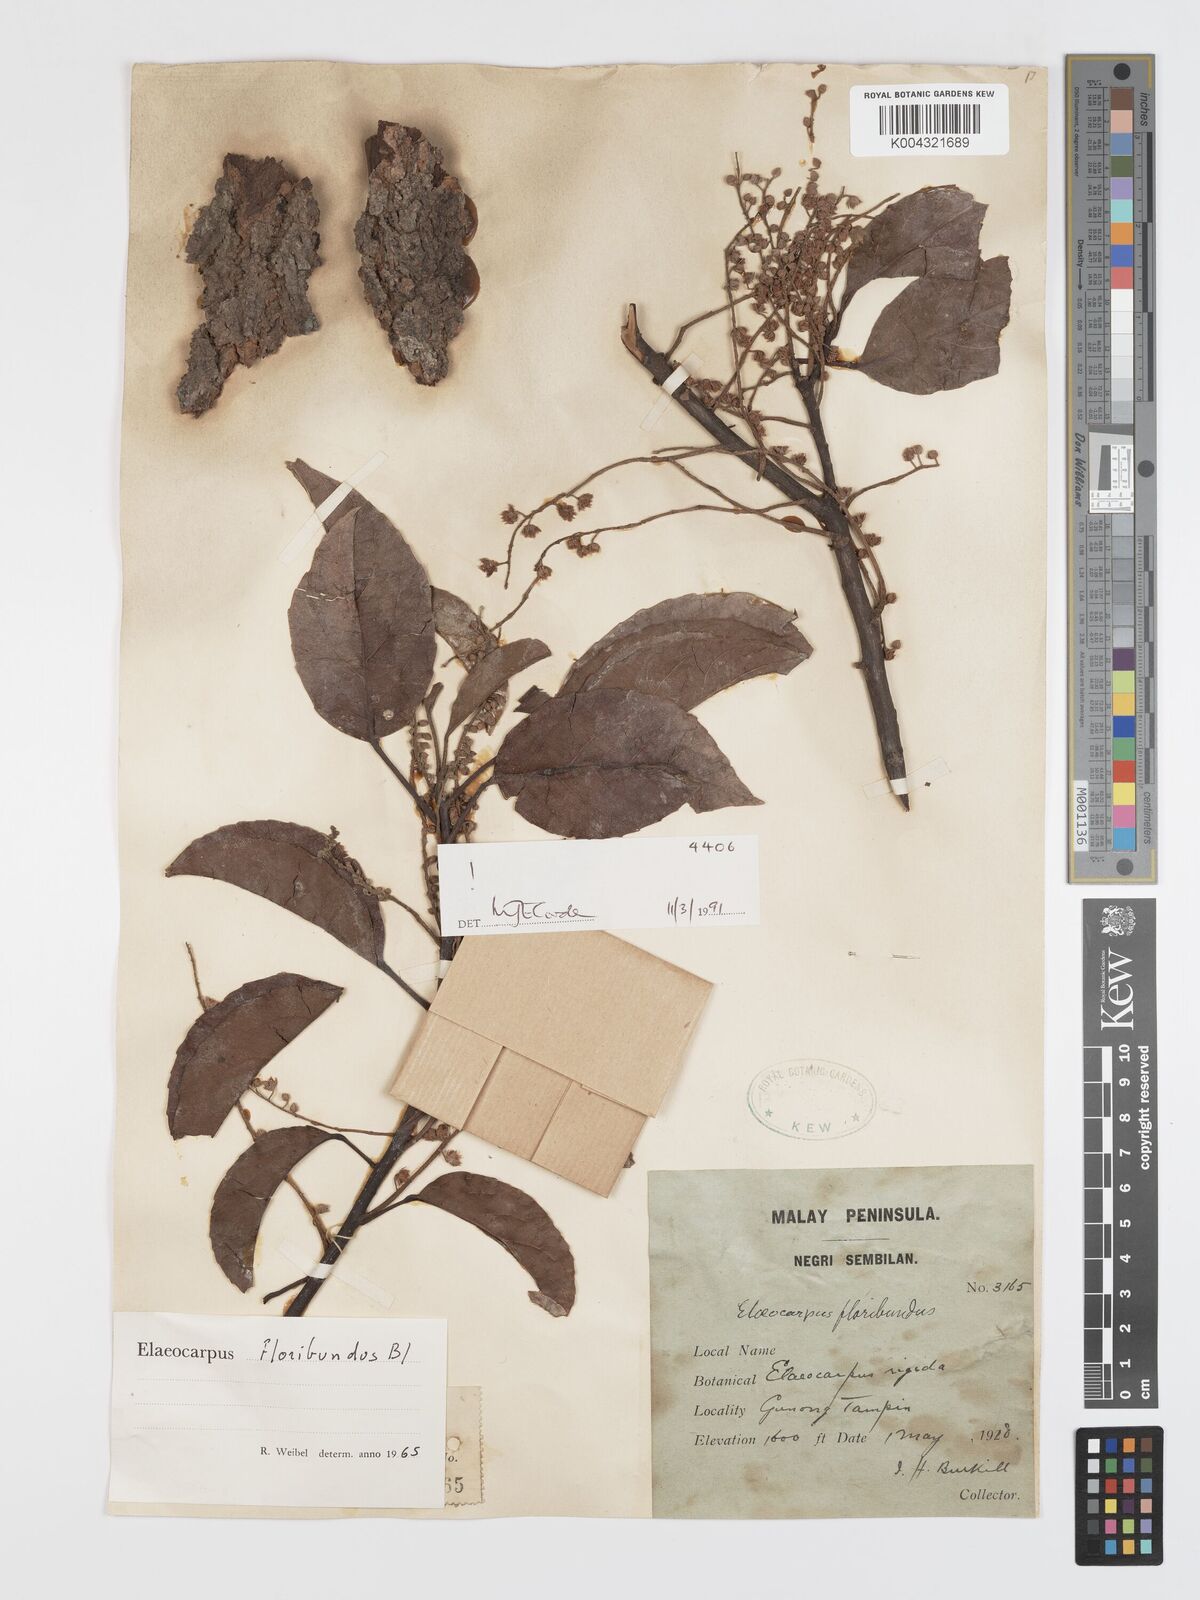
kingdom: Plantae
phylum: Tracheophyta
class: Magnoliopsida
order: Oxalidales
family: Elaeocarpaceae
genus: Elaeocarpus
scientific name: Elaeocarpus floribundus
